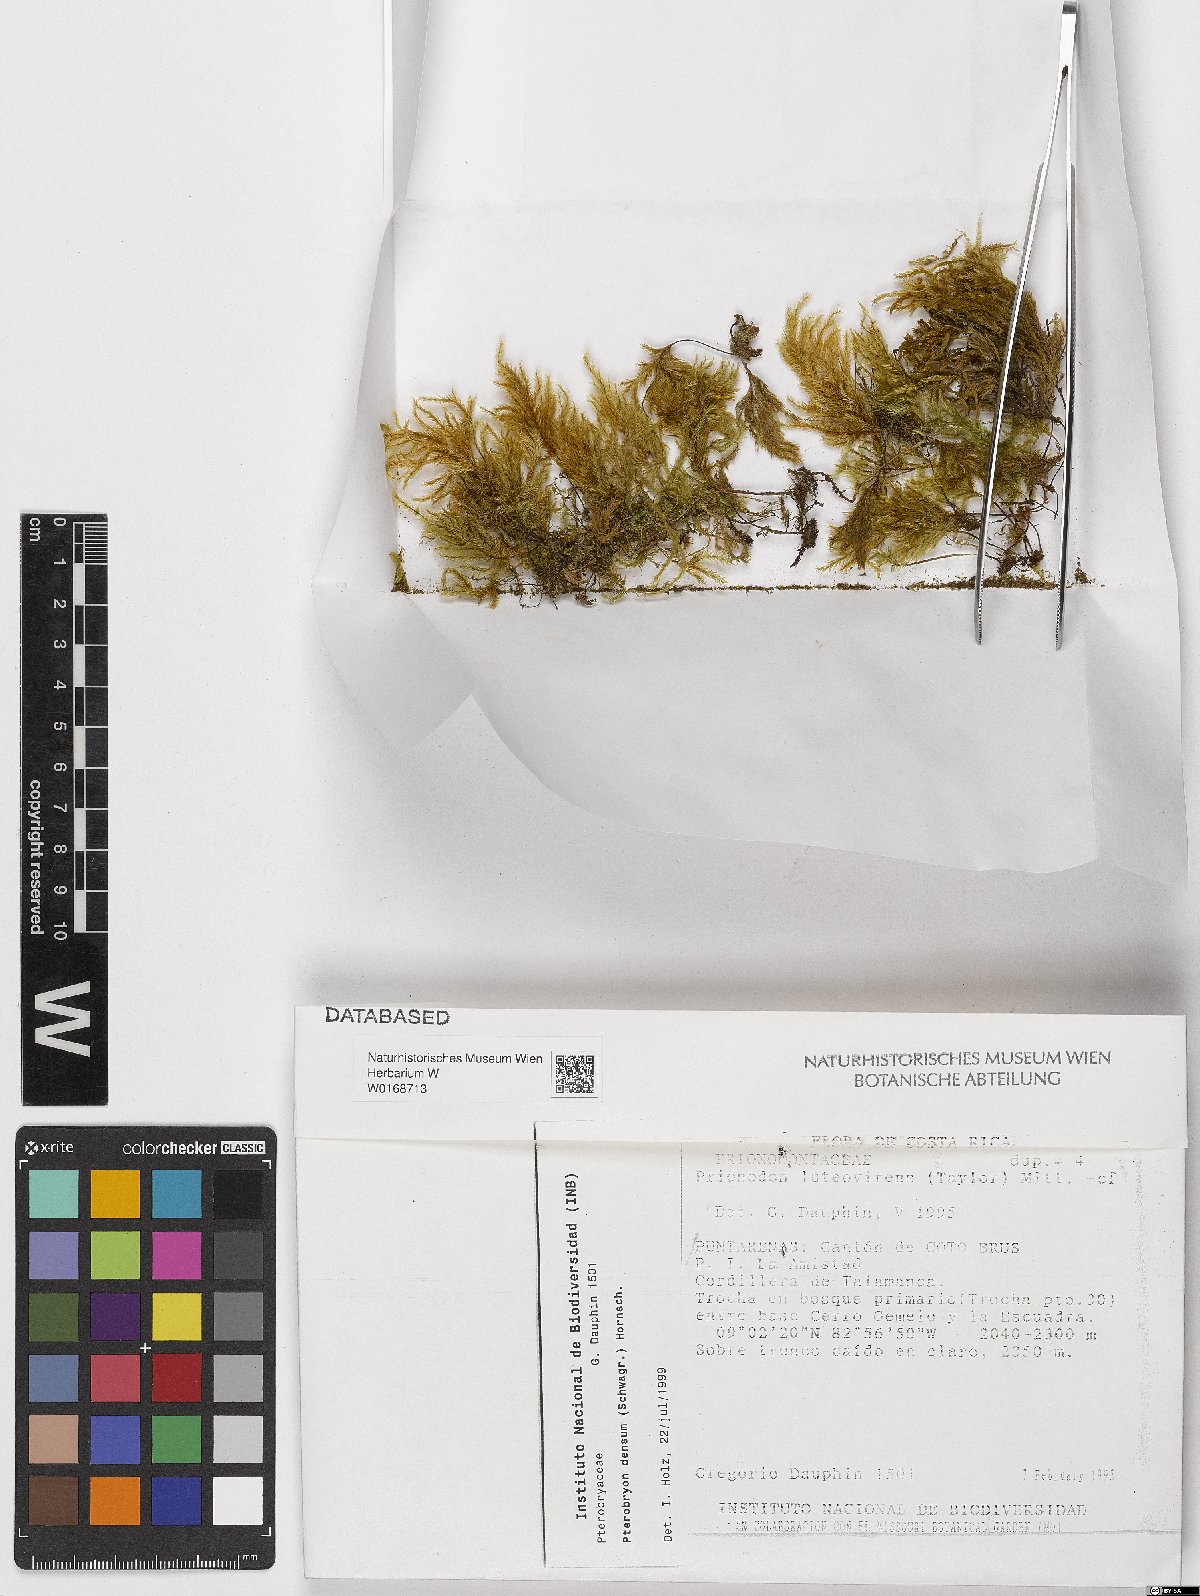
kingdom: Plantae
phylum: Bryophyta
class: Bryopsida
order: Hypnales
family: Prionodontaceae
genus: Prionodon
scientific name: Prionodon luteovirens
